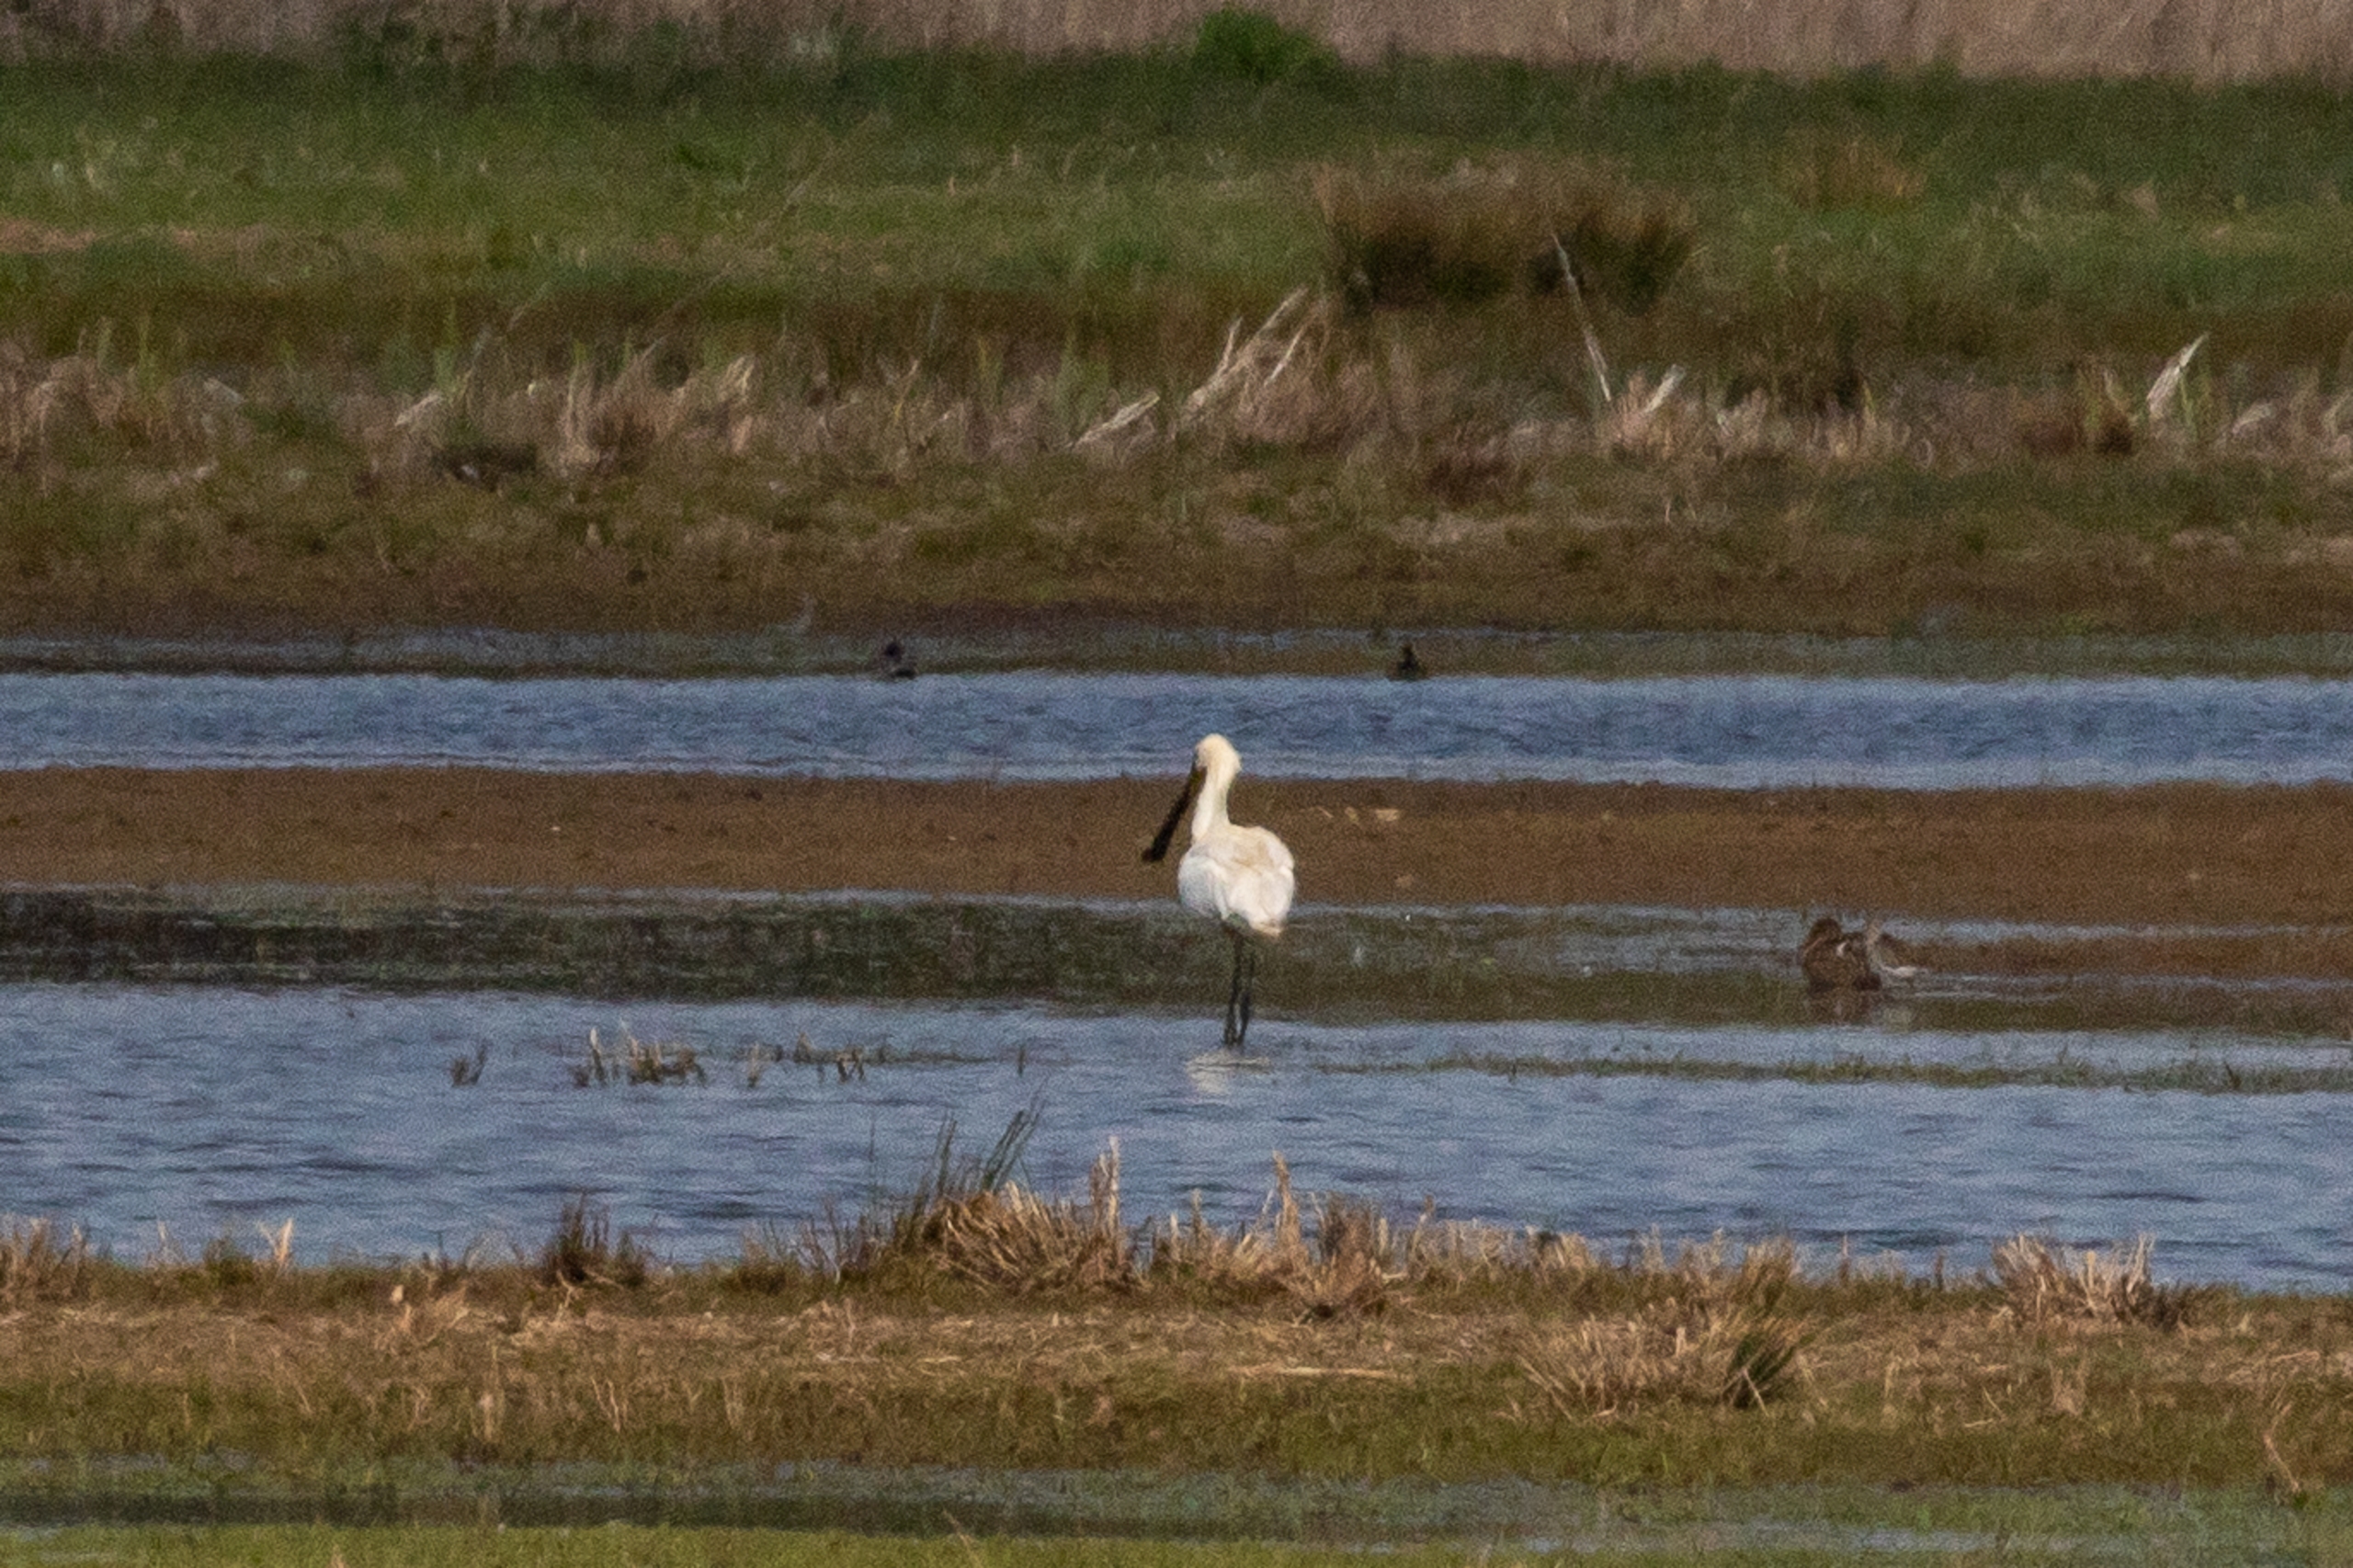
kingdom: Animalia
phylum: Chordata
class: Aves
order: Pelecaniformes
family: Threskiornithidae
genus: Platalea
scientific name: Platalea leucorodia
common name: Skestork
